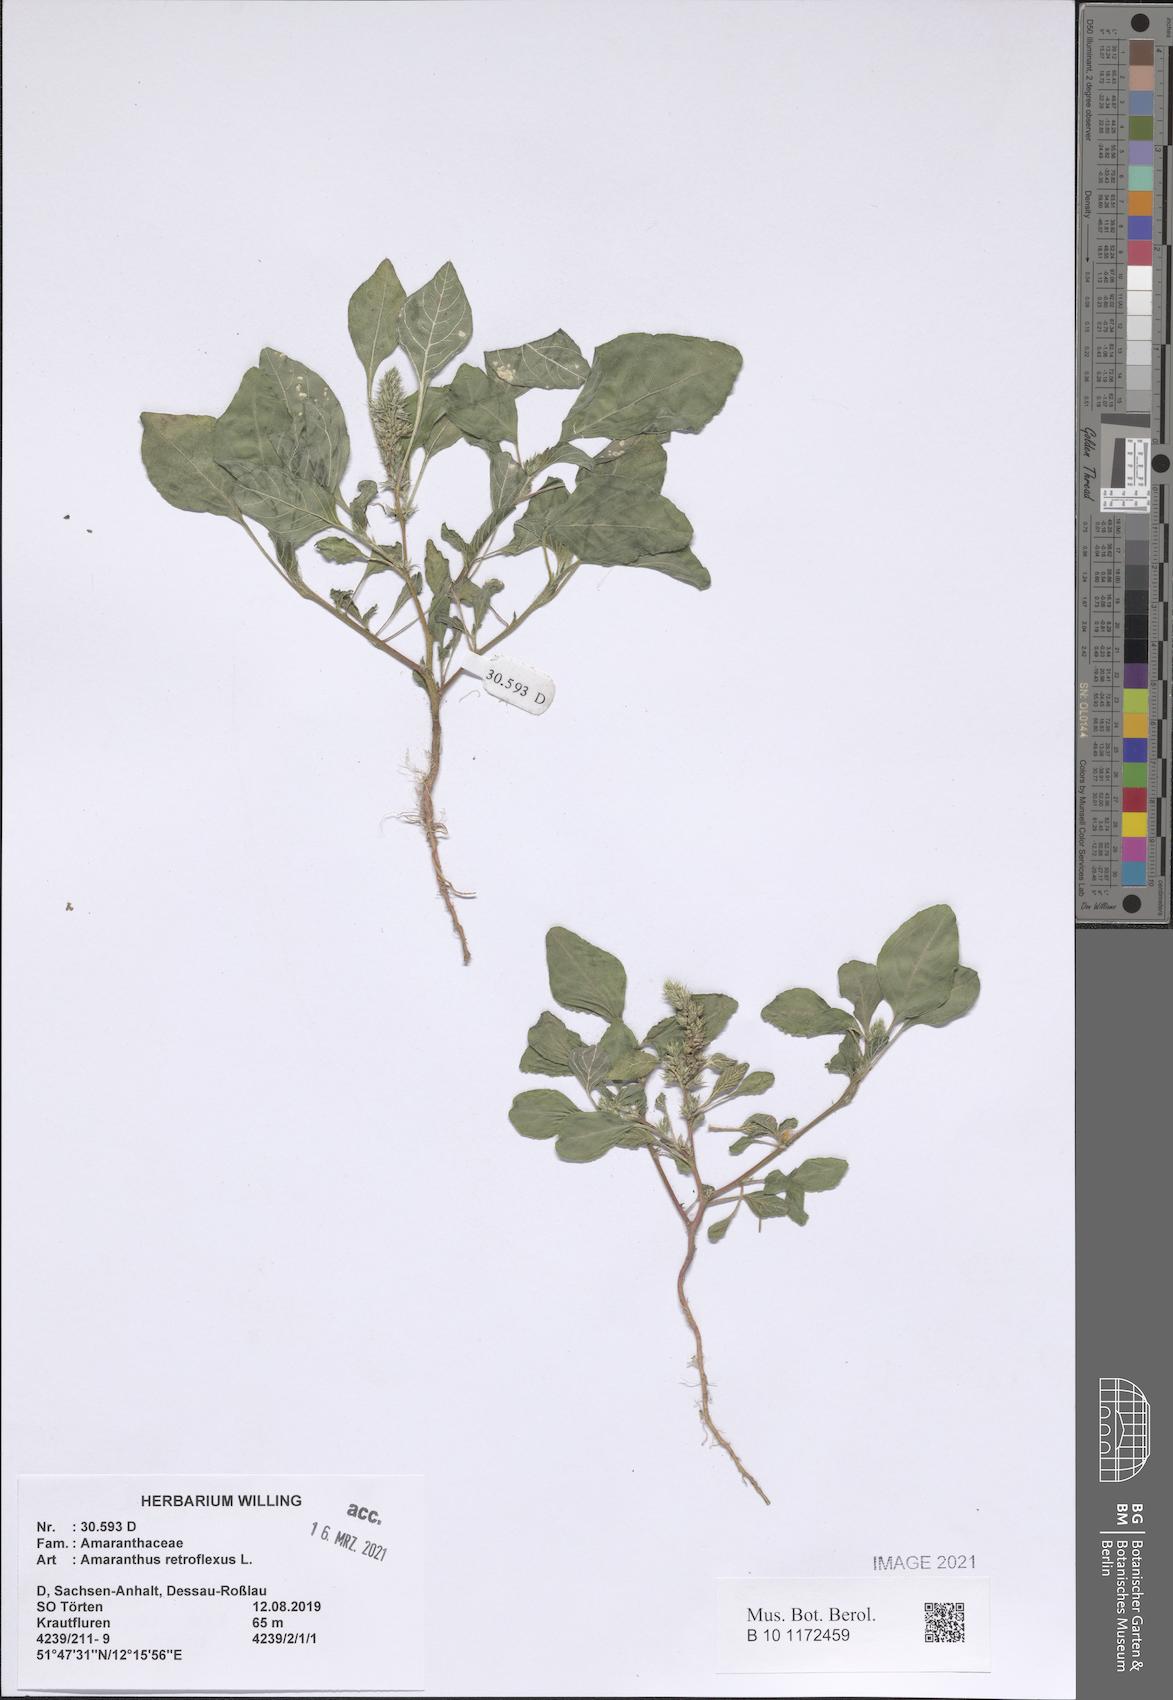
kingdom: Plantae
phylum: Tracheophyta
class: Magnoliopsida
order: Caryophyllales
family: Amaranthaceae
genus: Amaranthus
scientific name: Amaranthus retroflexus
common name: Redroot amaranth
